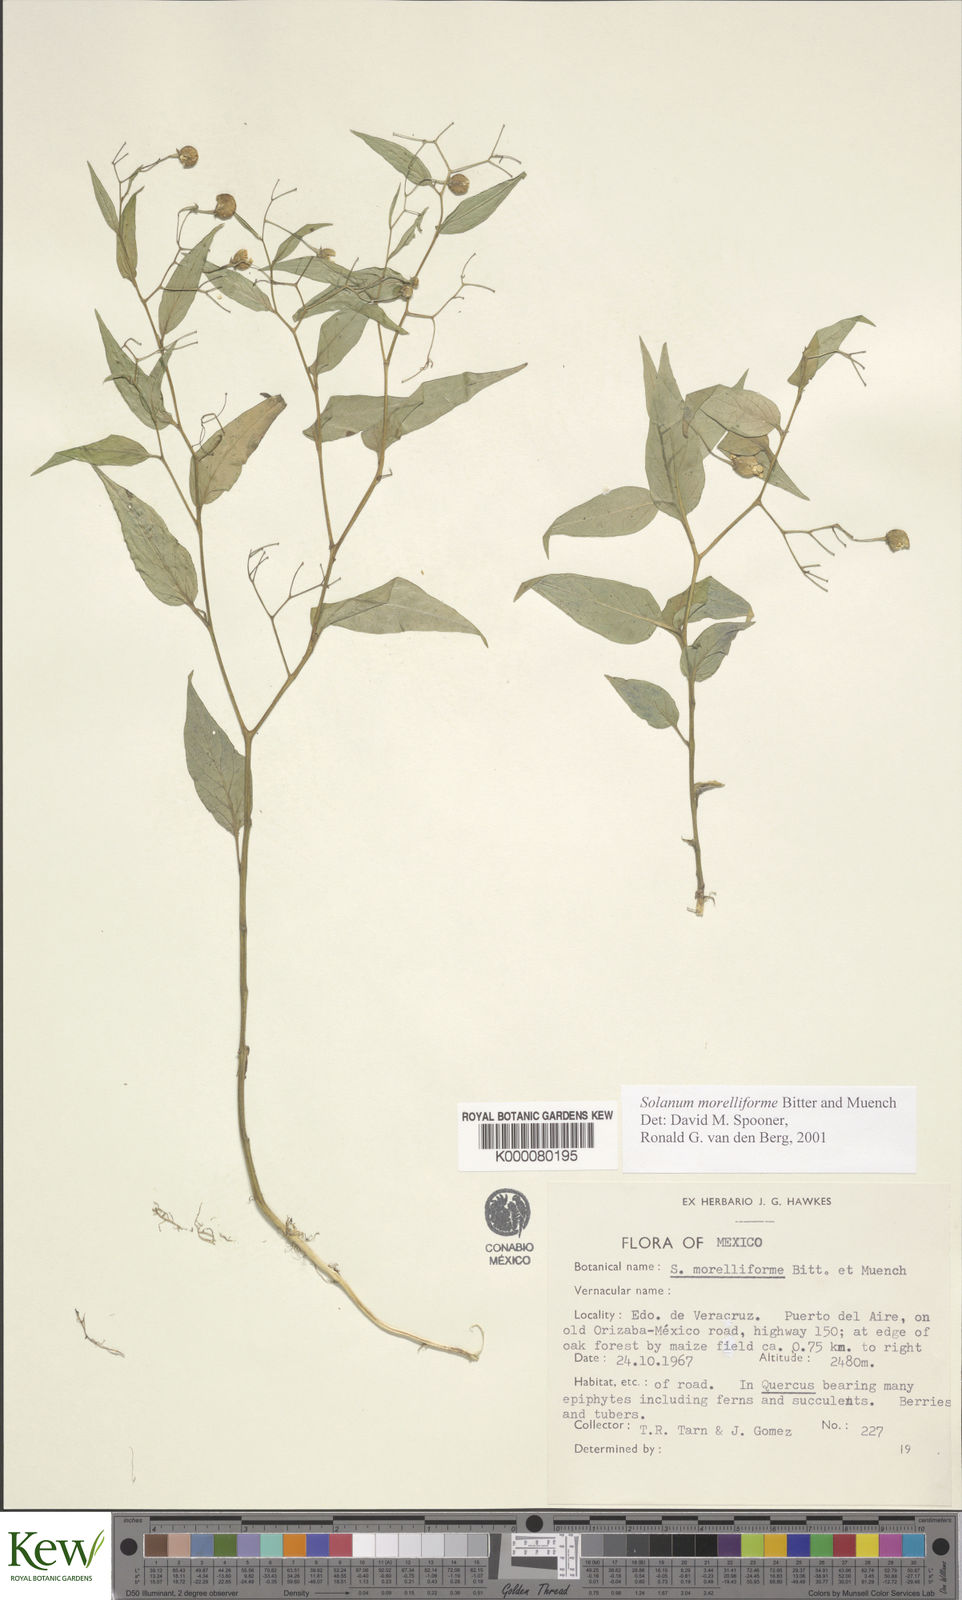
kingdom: Plantae
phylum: Tracheophyta
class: Magnoliopsida
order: Solanales
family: Solanaceae
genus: Solanum
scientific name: Solanum morelliforme
